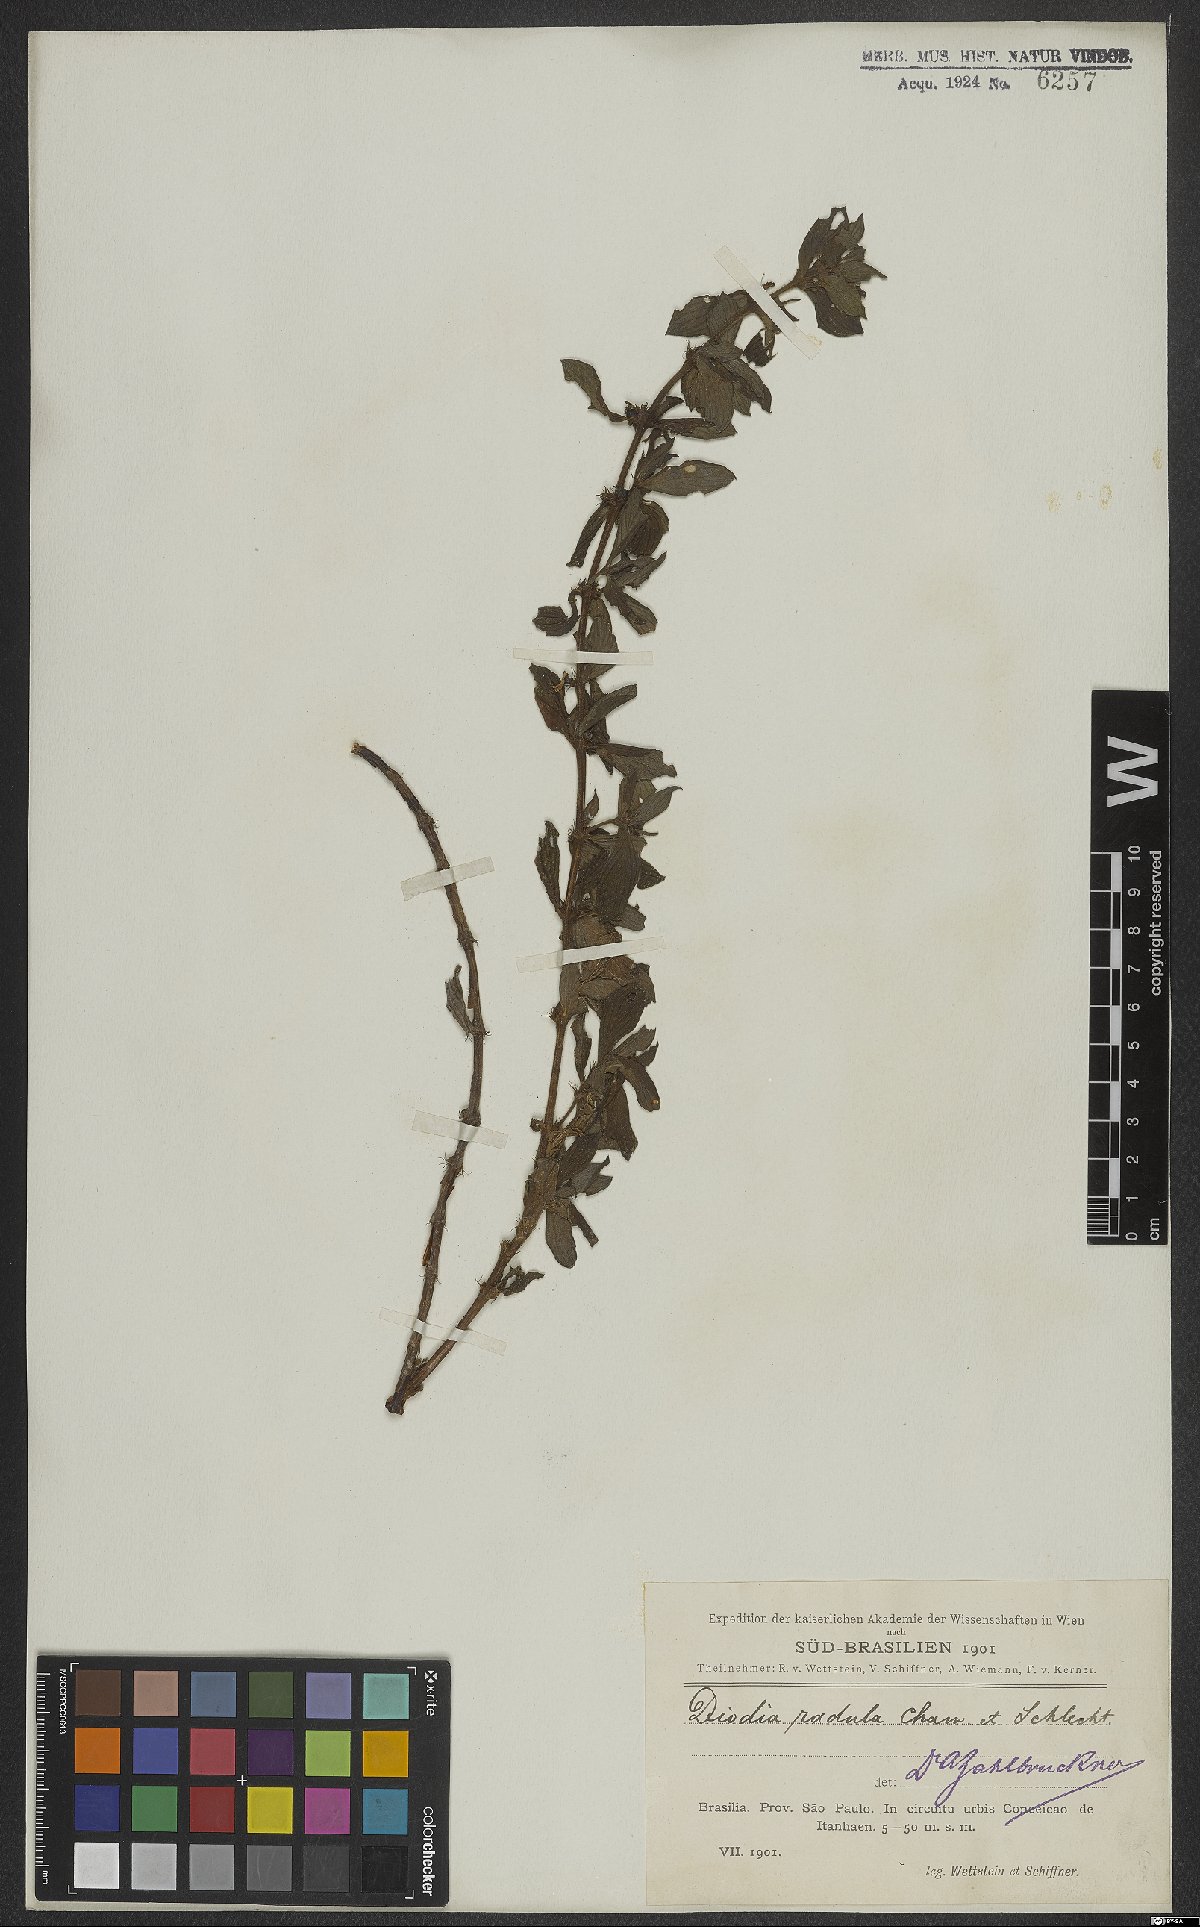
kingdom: Plantae
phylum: Tracheophyta
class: Magnoliopsida
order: Gentianales
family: Rubiaceae
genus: Hexasepalum
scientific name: Hexasepalum radulum
